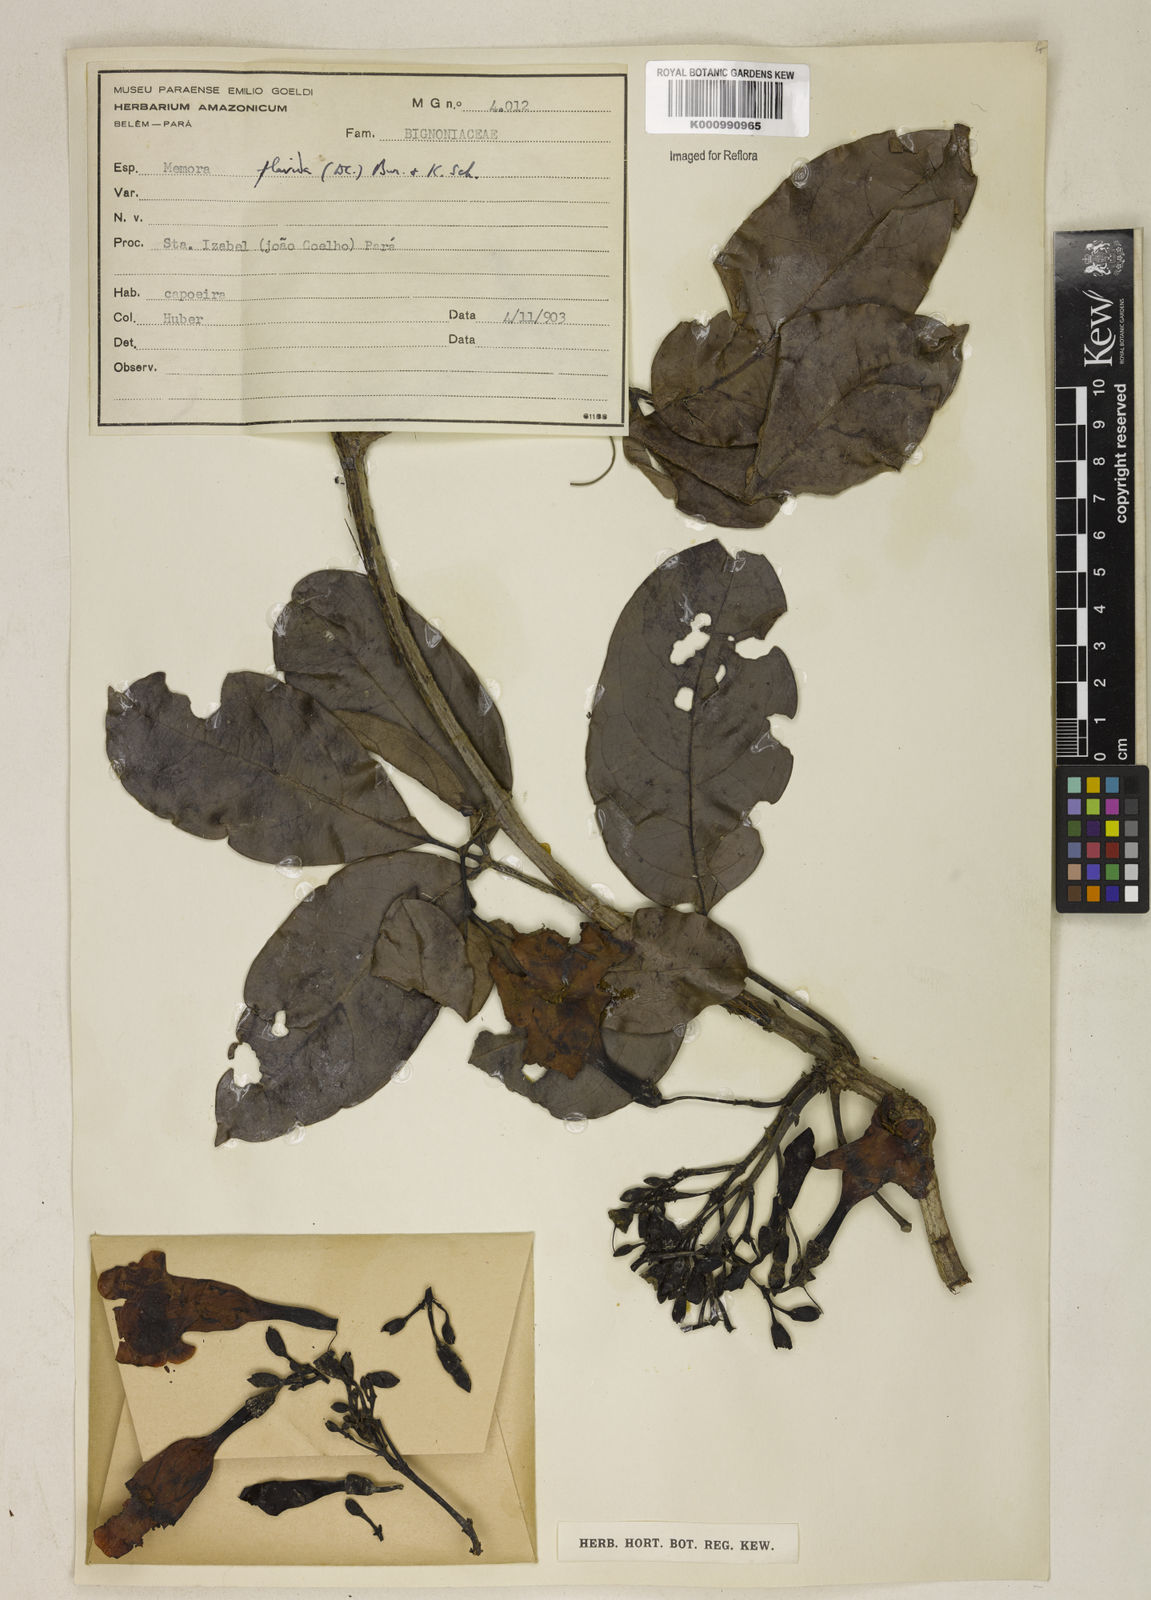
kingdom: Plantae
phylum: Tracheophyta
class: Magnoliopsida
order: Lamiales
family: Bignoniaceae
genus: Adenocalymma
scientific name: Adenocalymma neoflavidum
